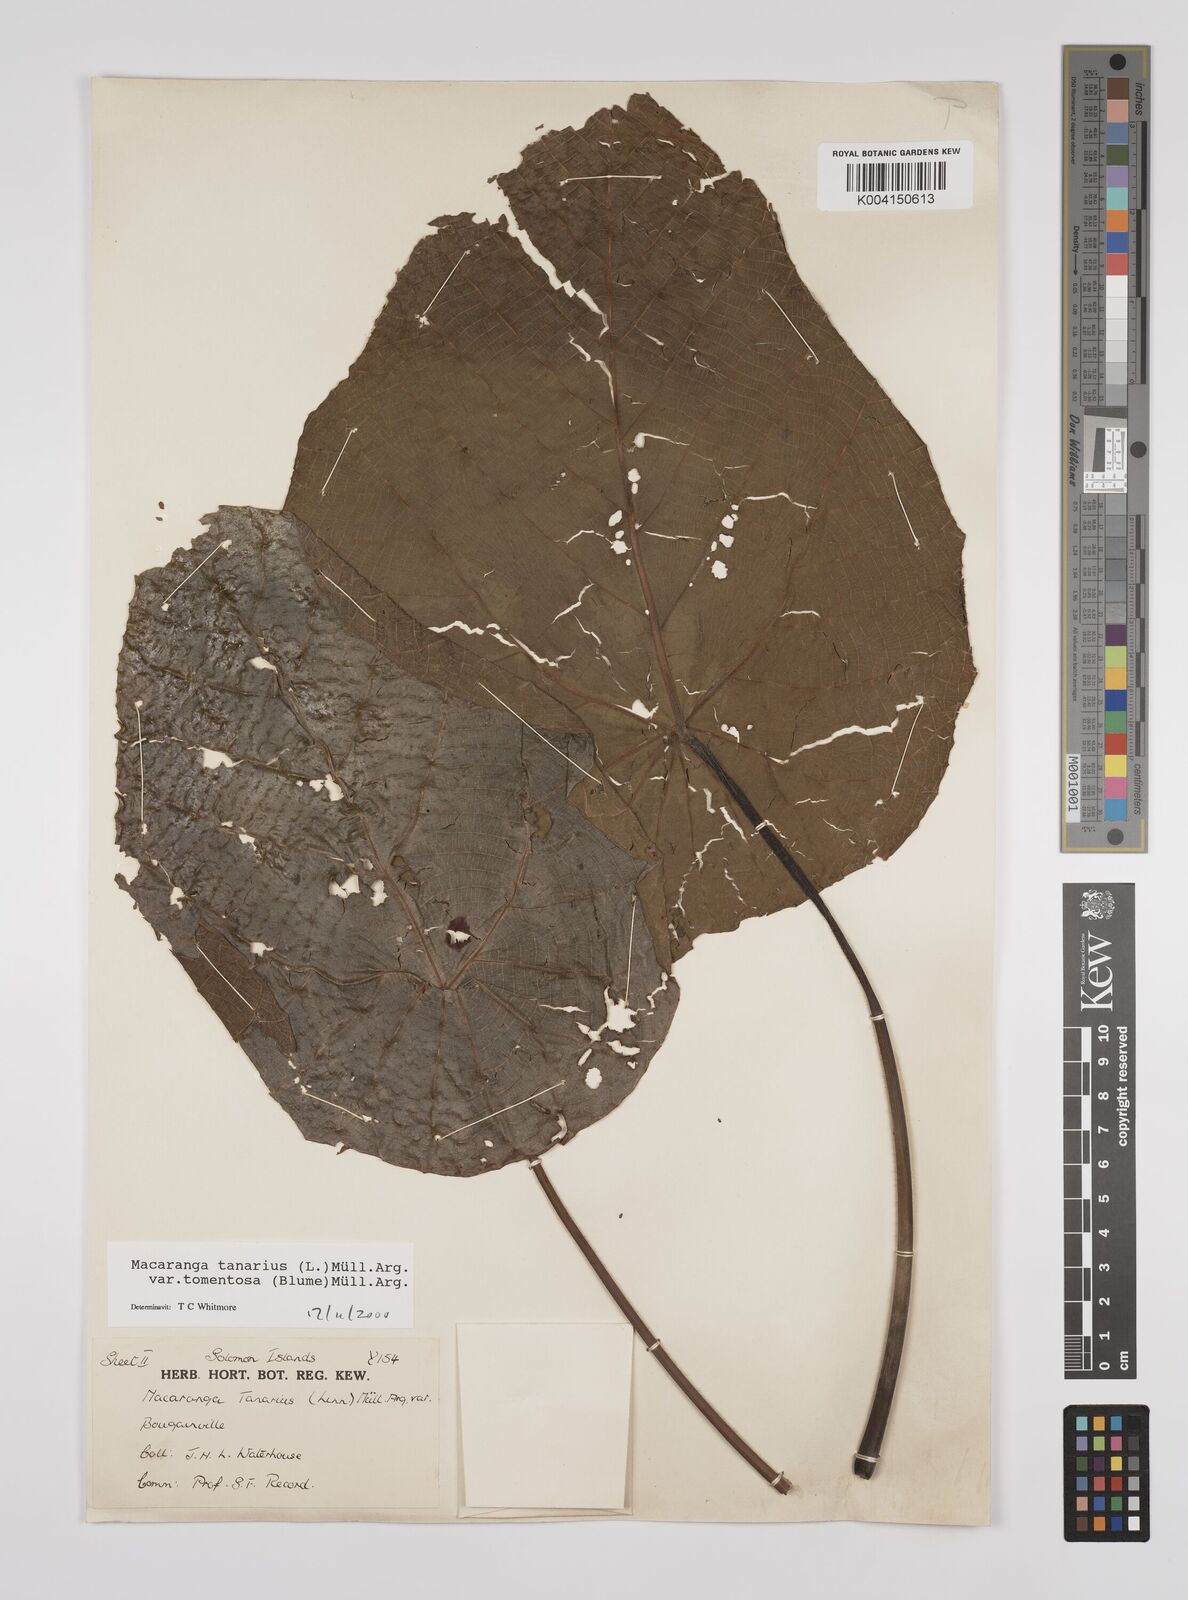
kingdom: Plantae
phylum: Tracheophyta
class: Magnoliopsida
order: Malpighiales
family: Euphorbiaceae
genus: Macaranga
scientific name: Macaranga tanarius
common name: Parasol leaf tree
